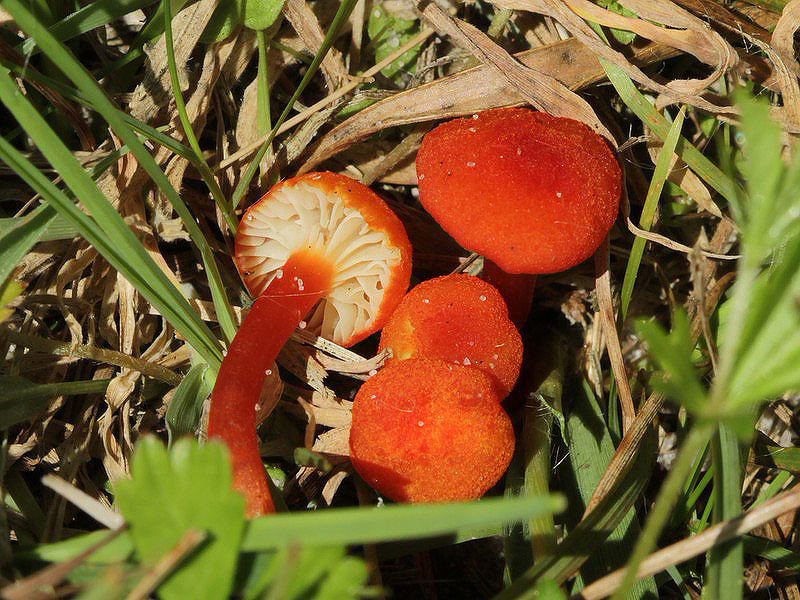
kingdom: Fungi
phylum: Basidiomycota
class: Agaricomycetes
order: Agaricales
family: Hygrophoraceae
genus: Hygrocybe
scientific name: Hygrocybe substrangulata
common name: kær-vokshat
